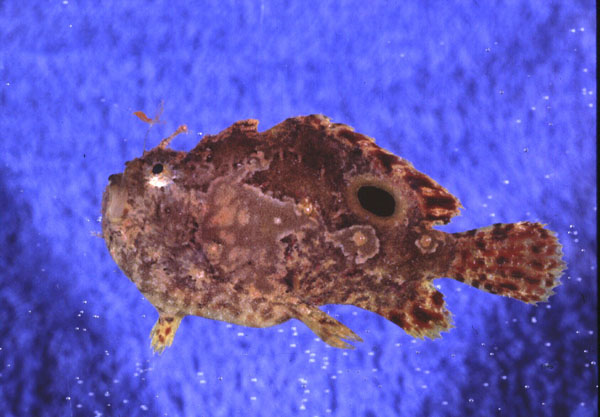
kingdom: Animalia
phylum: Chordata
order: Lophiiformes
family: Antennariidae
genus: Antennatus
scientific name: Antennatus nummifer
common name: Spotfin frogfish
